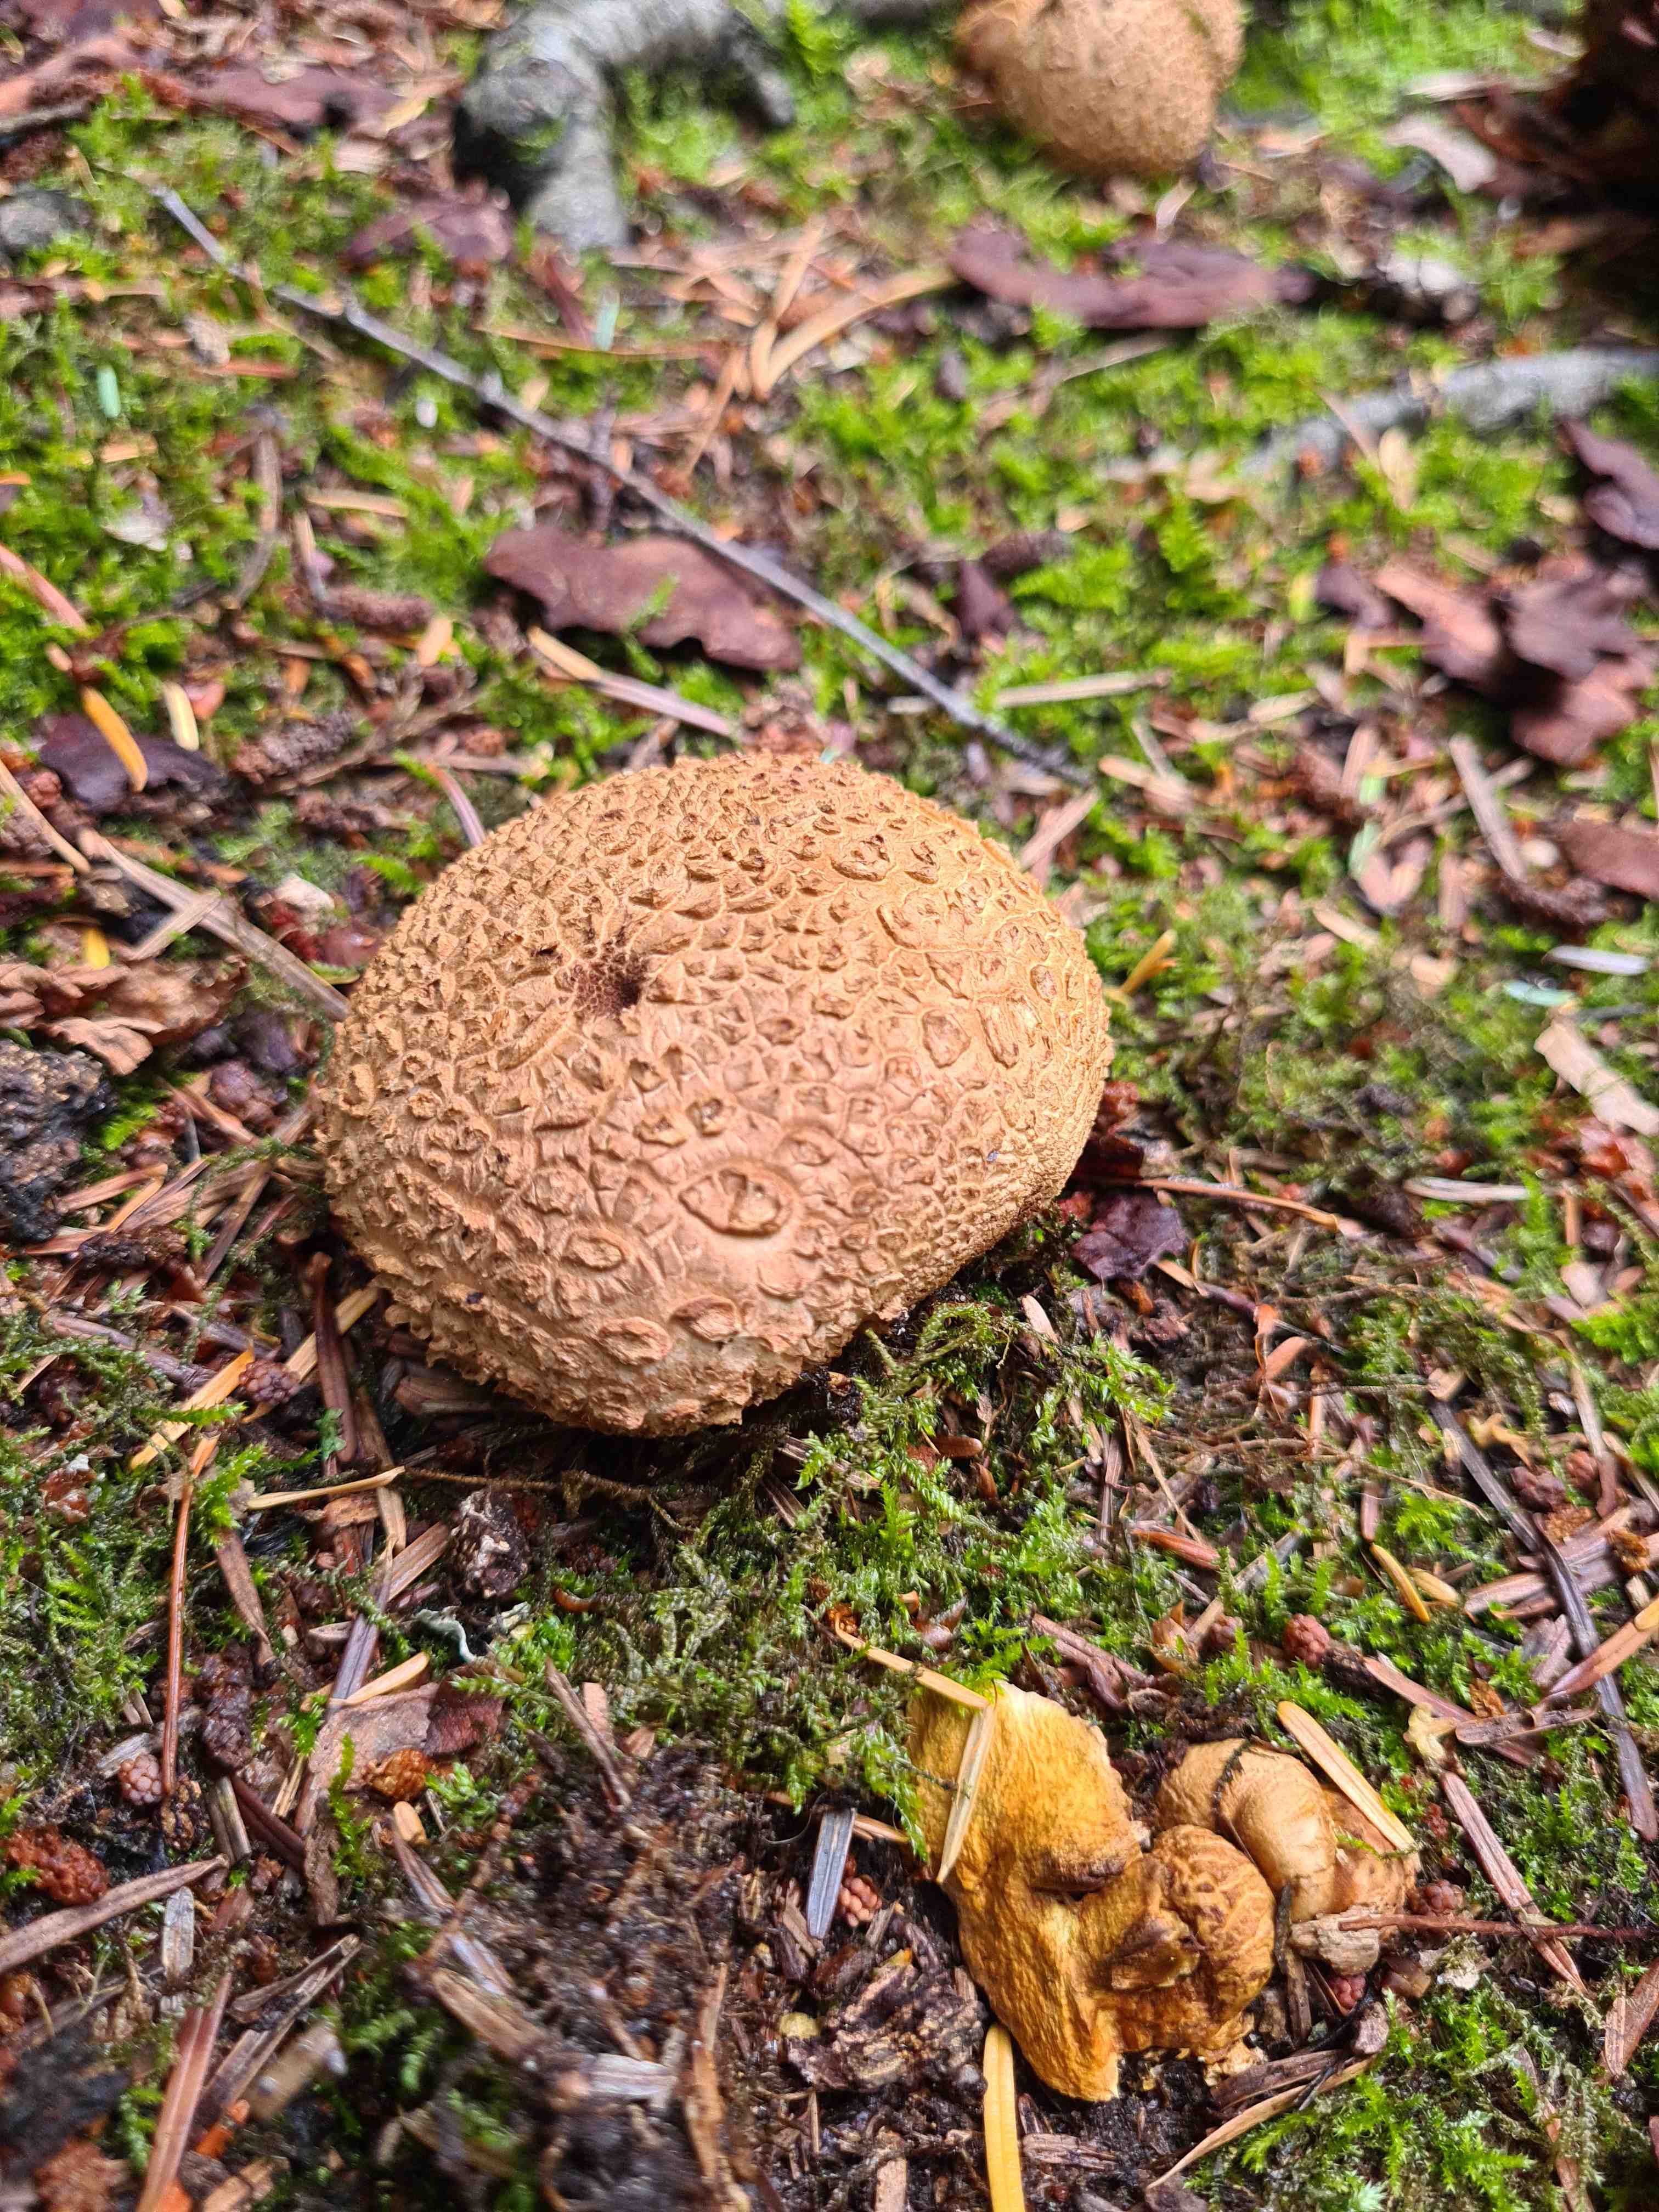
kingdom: Fungi
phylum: Basidiomycota
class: Agaricomycetes
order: Boletales
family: Sclerodermataceae
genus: Scleroderma
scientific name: Scleroderma citrinum
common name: almindelig bruskbold
